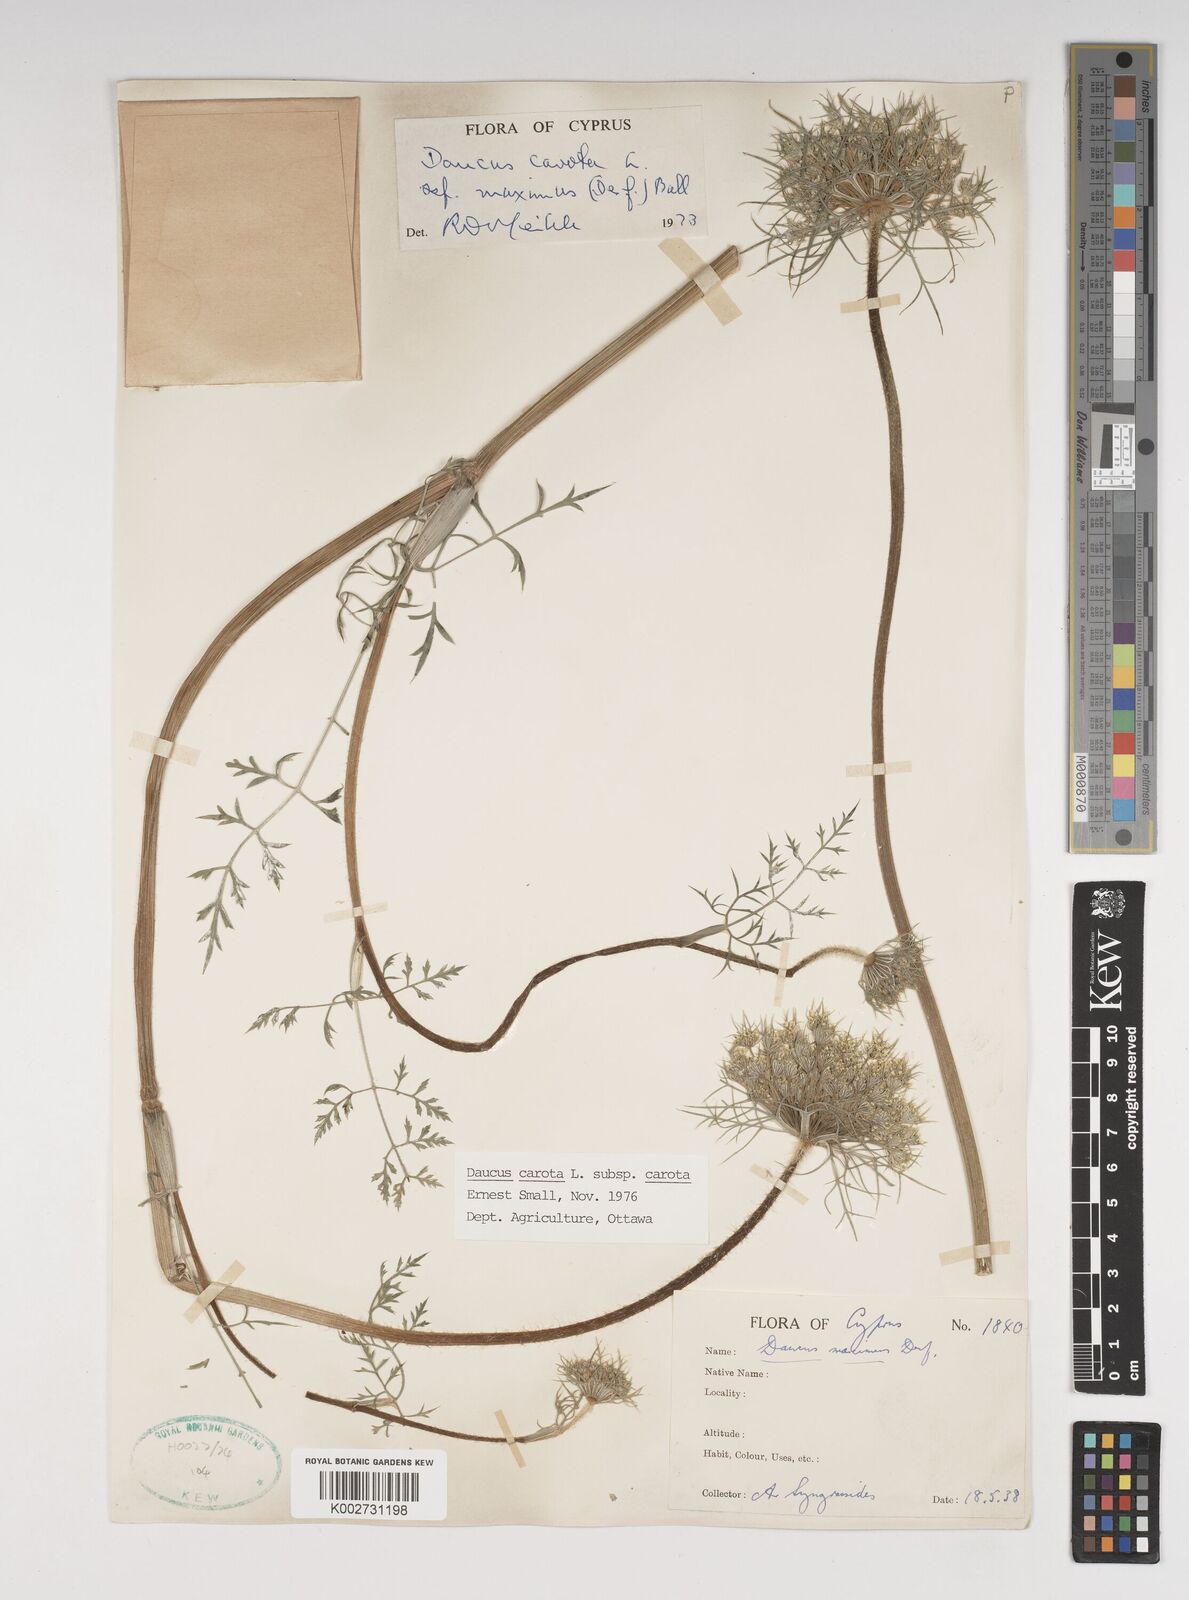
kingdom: Plantae
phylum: Tracheophyta
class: Magnoliopsida
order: Apiales
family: Apiaceae
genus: Daucus
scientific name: Daucus carota
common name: Wild carrot
